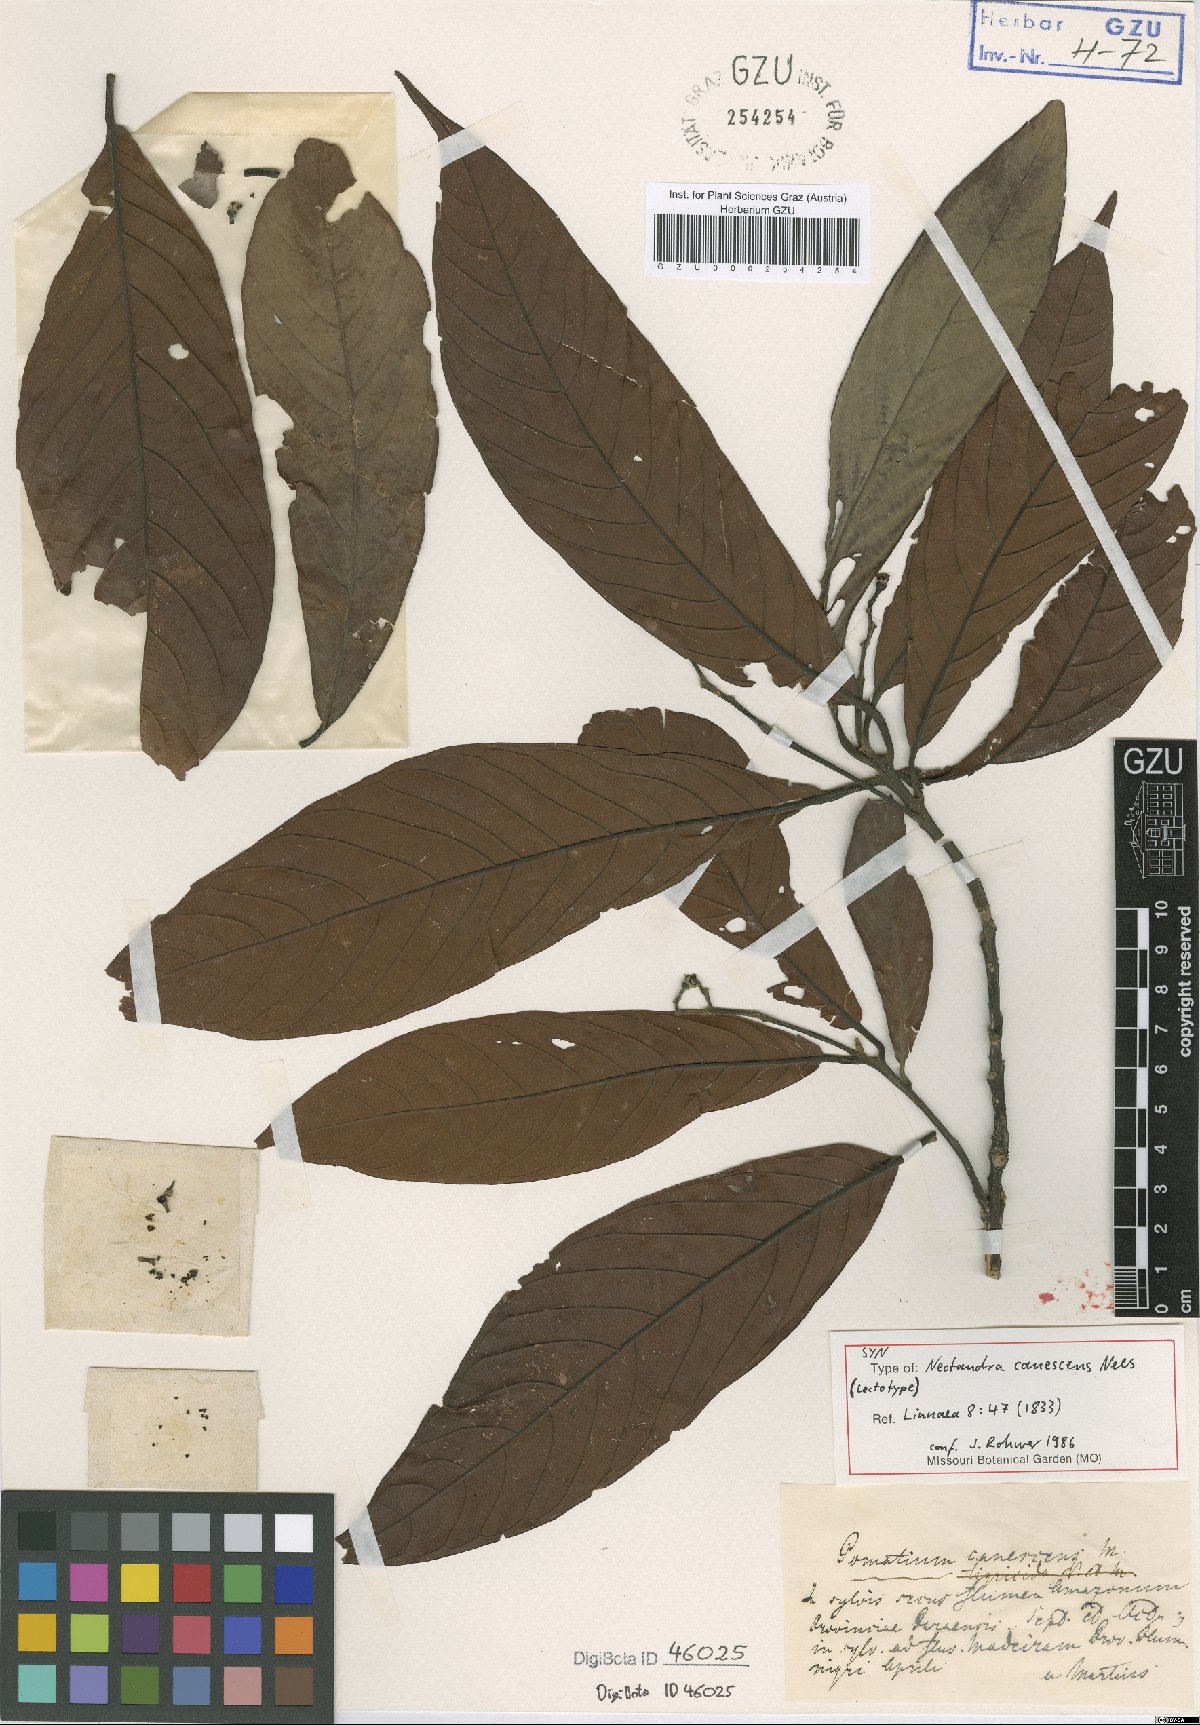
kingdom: Plantae
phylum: Tracheophyta
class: Magnoliopsida
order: Laurales
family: Lauraceae
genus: Nectandra
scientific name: Nectandra canescens
